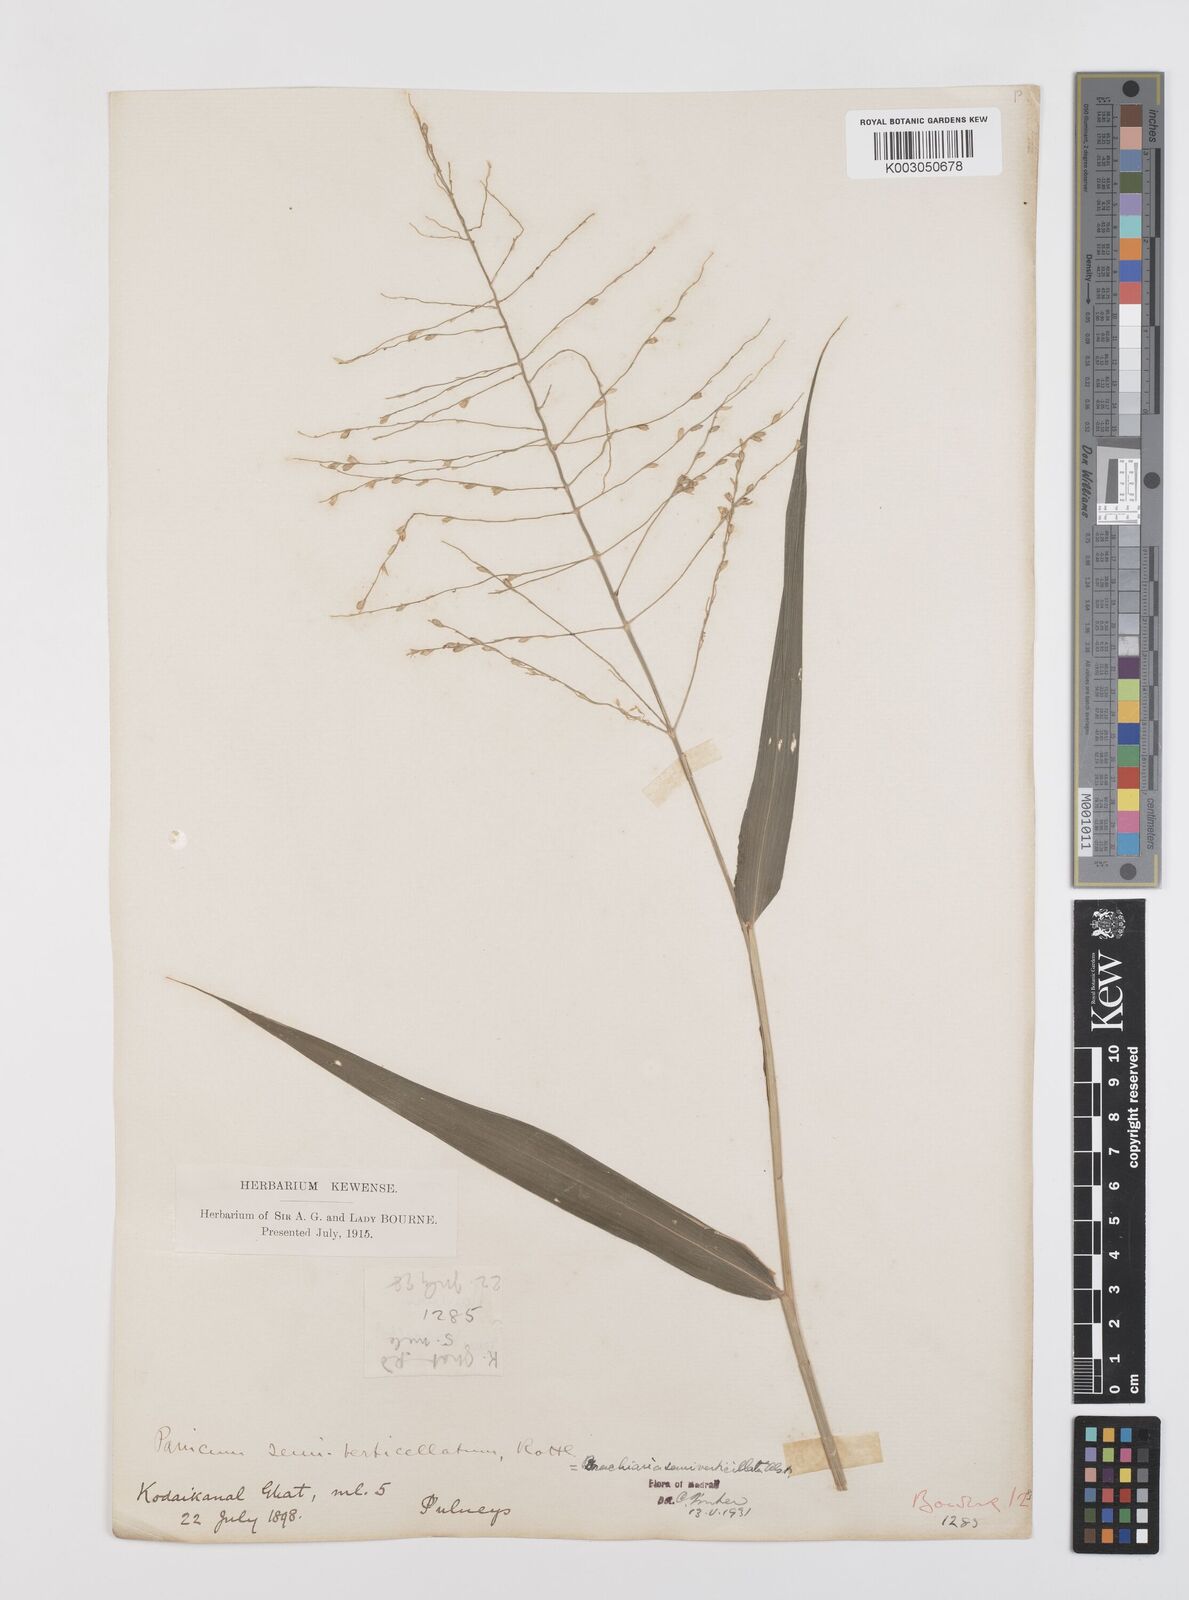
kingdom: Plantae
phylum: Tracheophyta
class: Liliopsida
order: Poales
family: Poaceae
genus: Urochloa
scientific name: Urochloa Brachiaria semiverticillata
